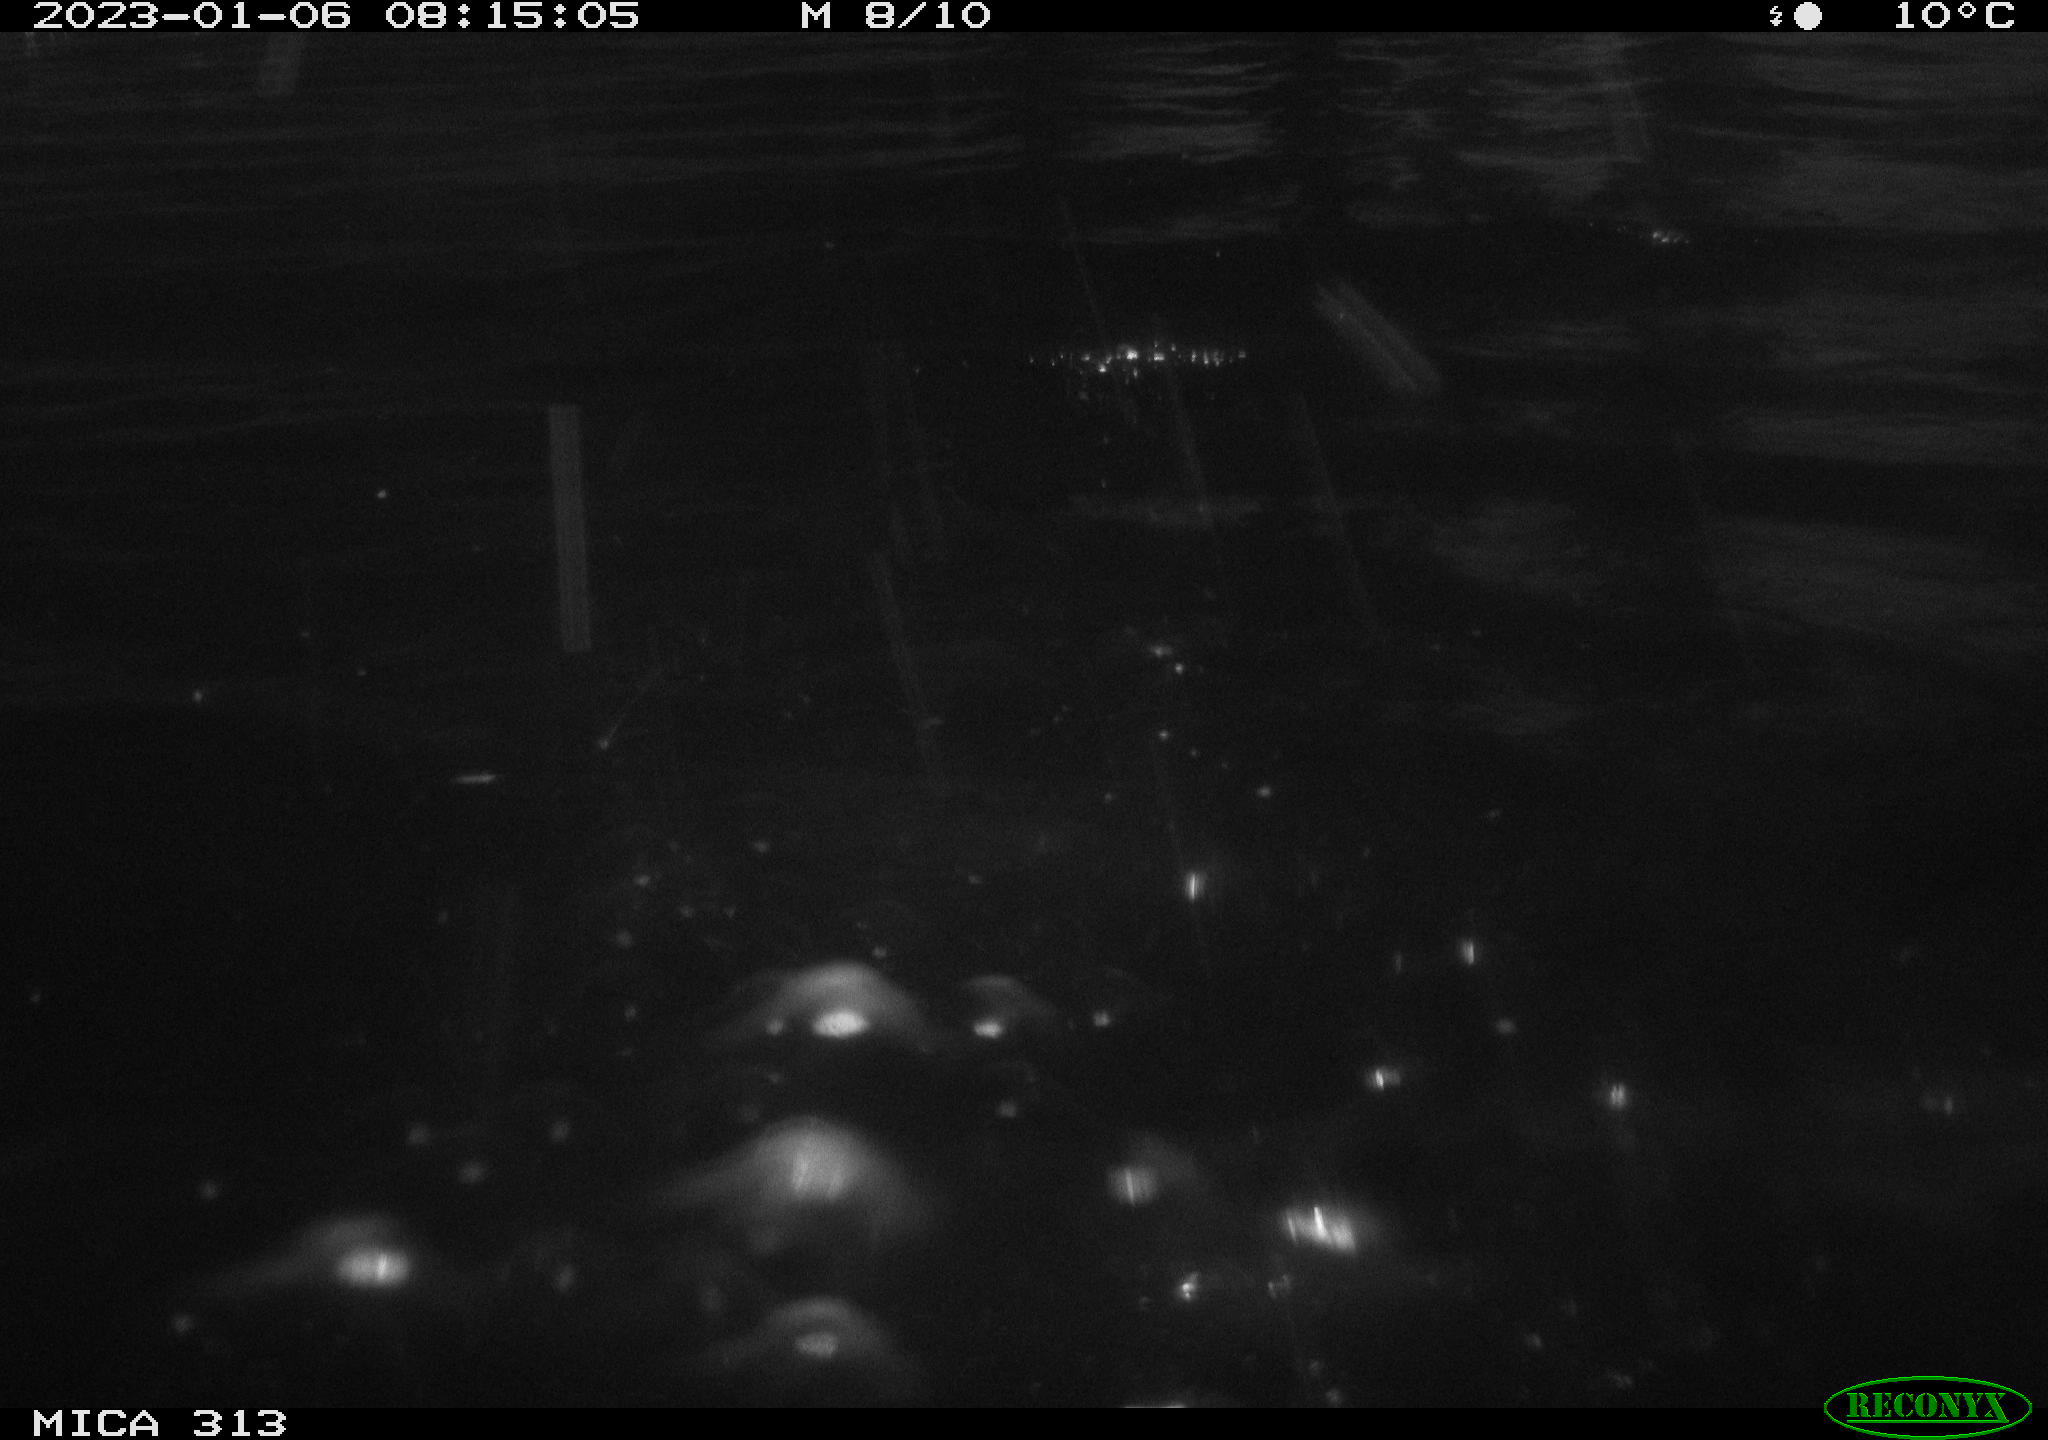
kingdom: Animalia
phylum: Chordata
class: Mammalia
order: Rodentia
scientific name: Rodentia
